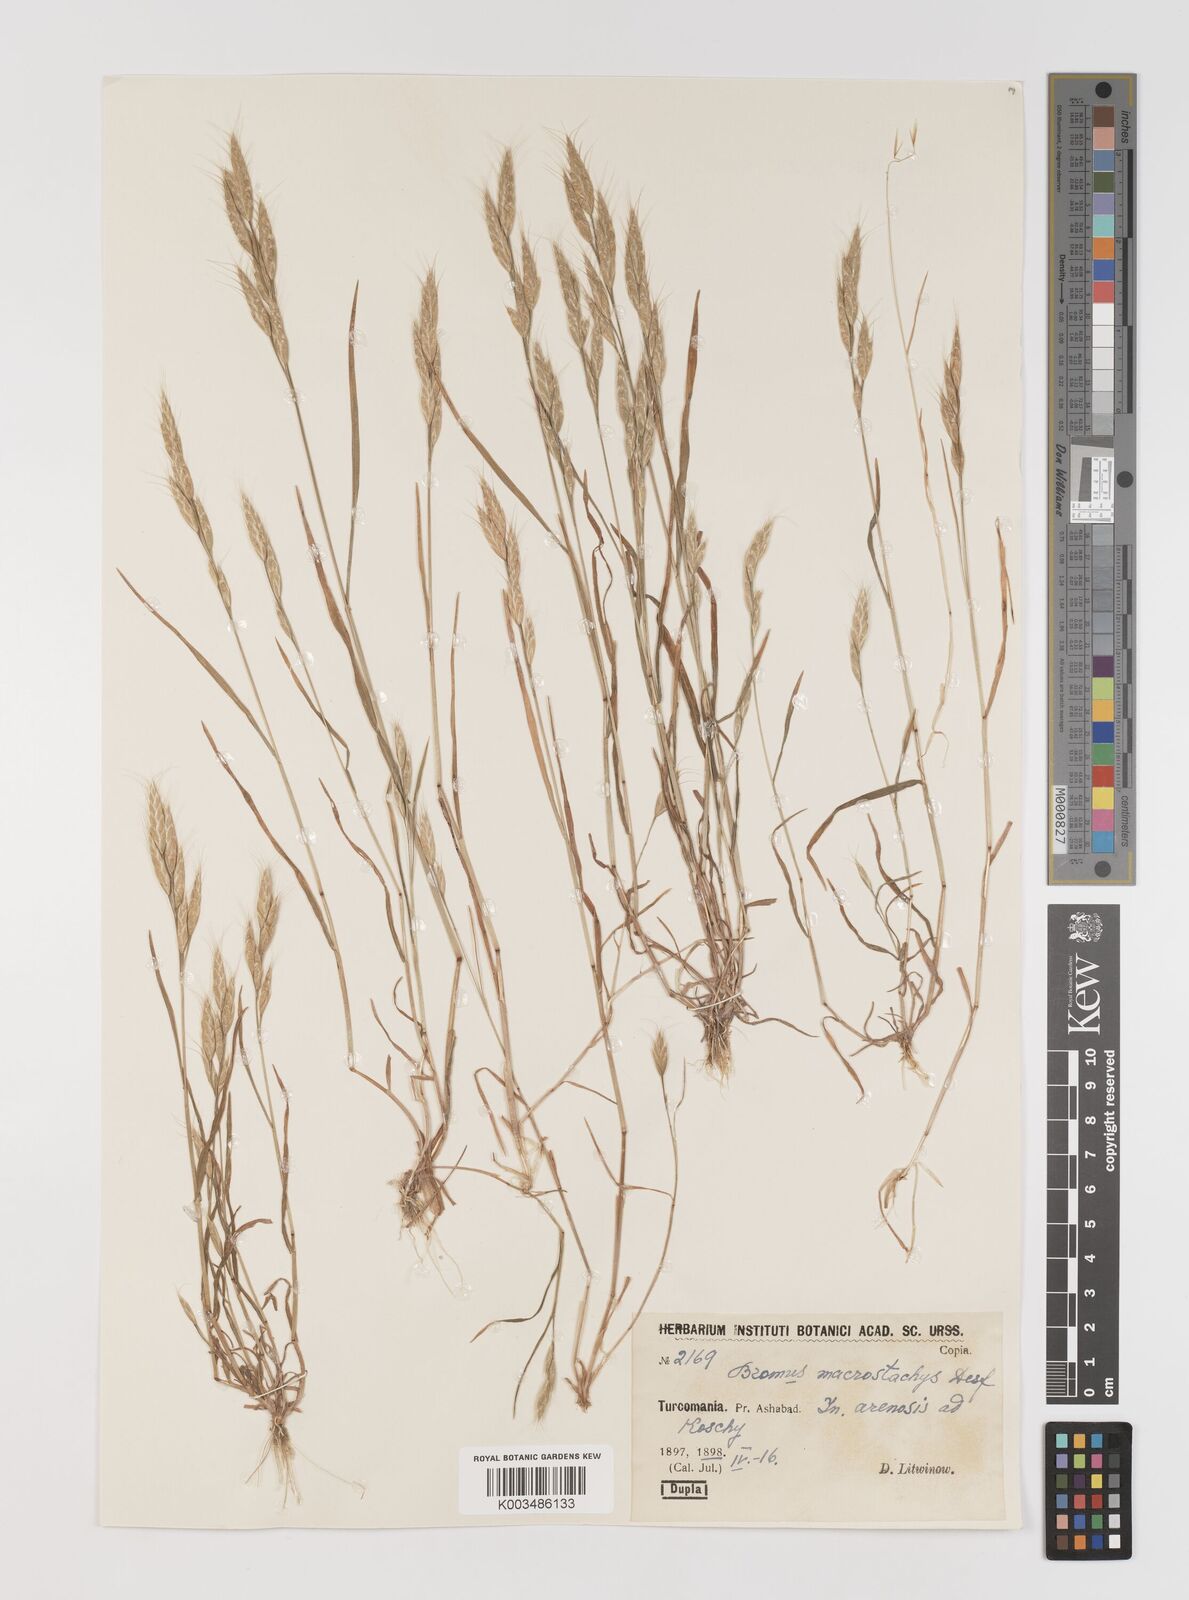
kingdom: Plantae
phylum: Tracheophyta
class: Liliopsida
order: Poales
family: Poaceae
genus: Bromus
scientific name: Bromus japonicus
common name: Japanese brome
